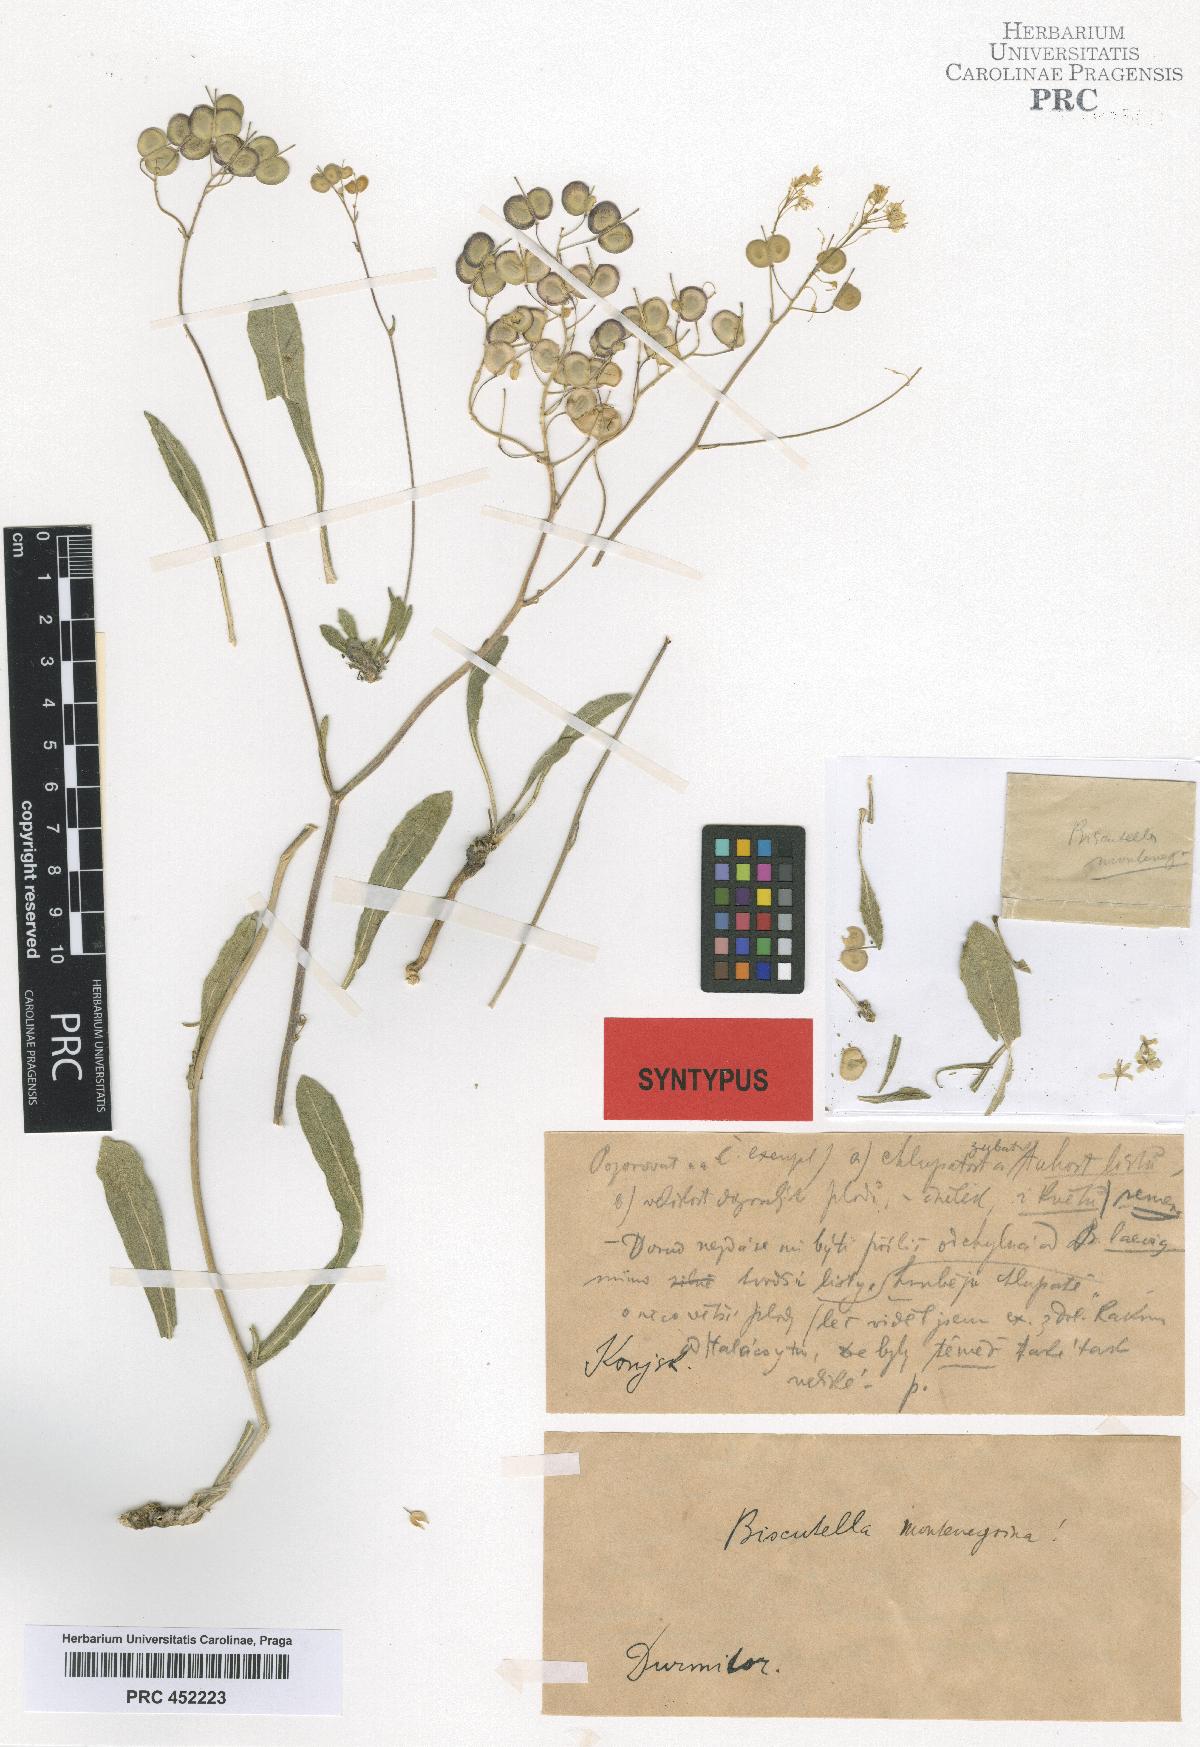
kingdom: Plantae
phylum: Tracheophyta
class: Magnoliopsida
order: Brassicales
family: Brassicaceae
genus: Biscutella
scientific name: Biscutella laevigata
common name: Buckler mustard
